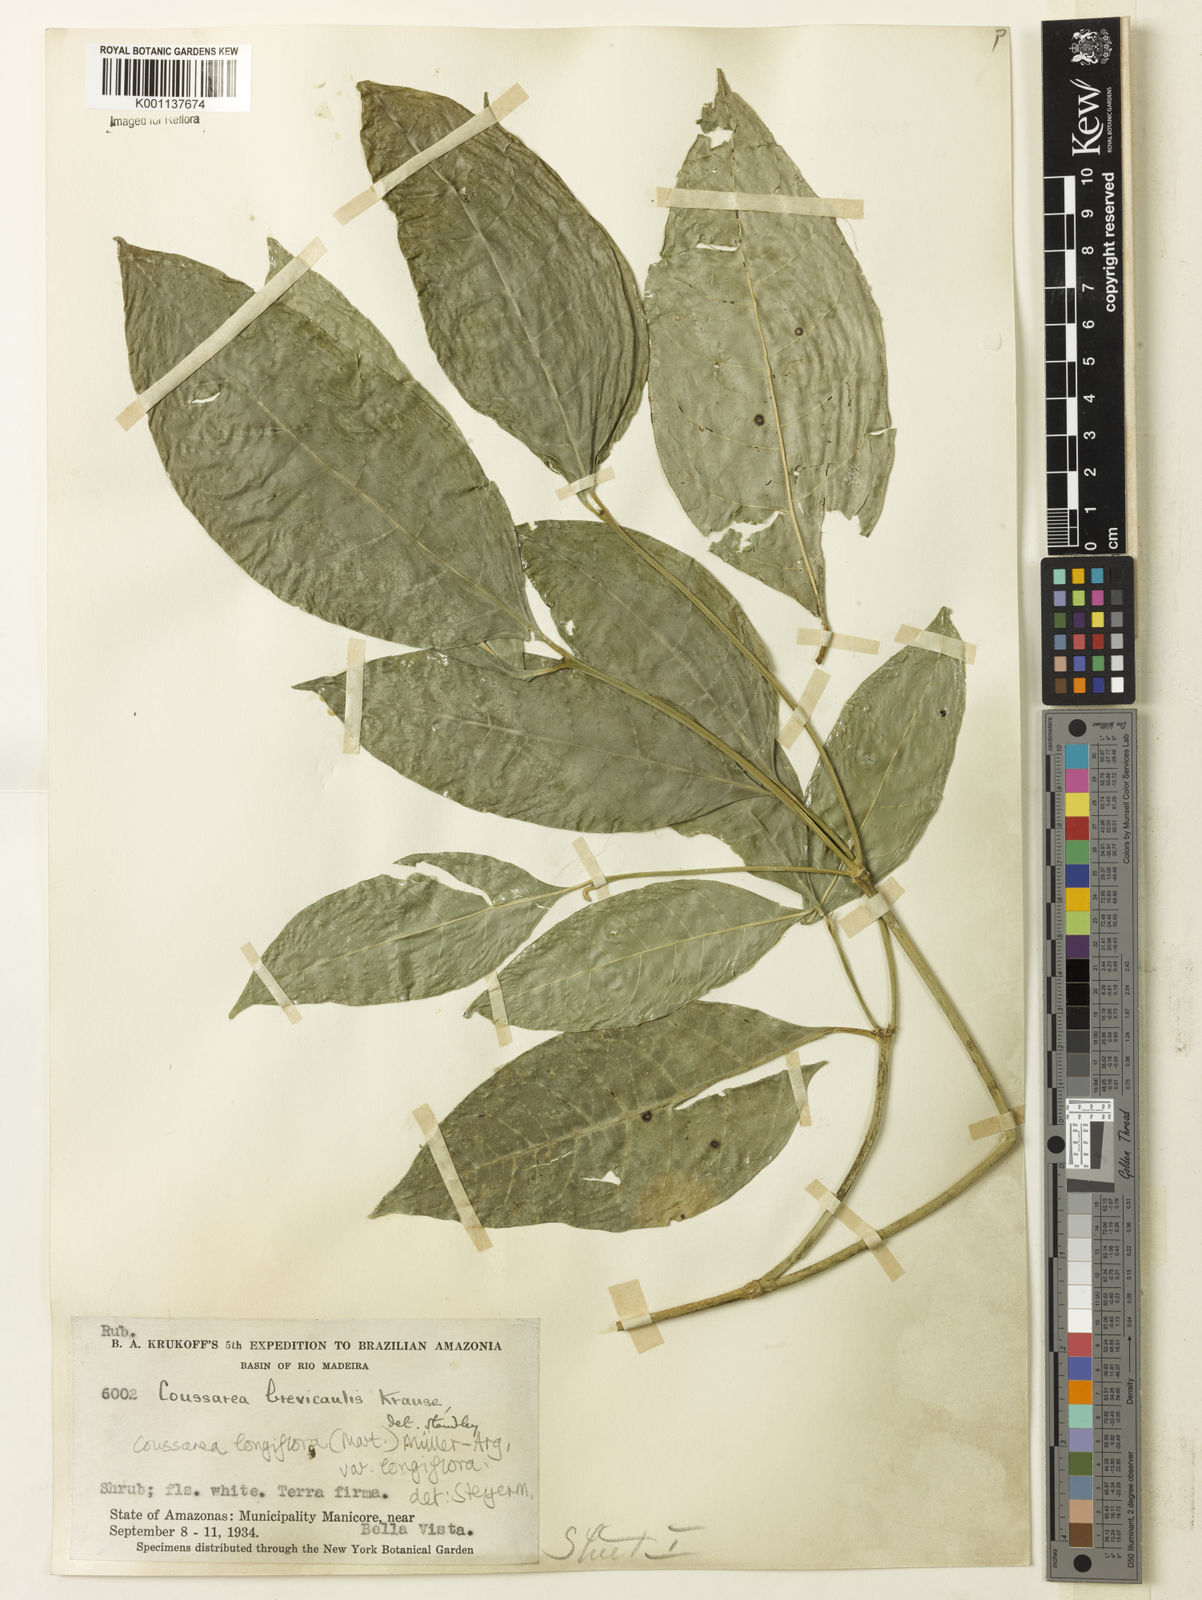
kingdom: Plantae
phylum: Tracheophyta
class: Magnoliopsida
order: Gentianales
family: Rubiaceae
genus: Coussarea
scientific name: Coussarea
